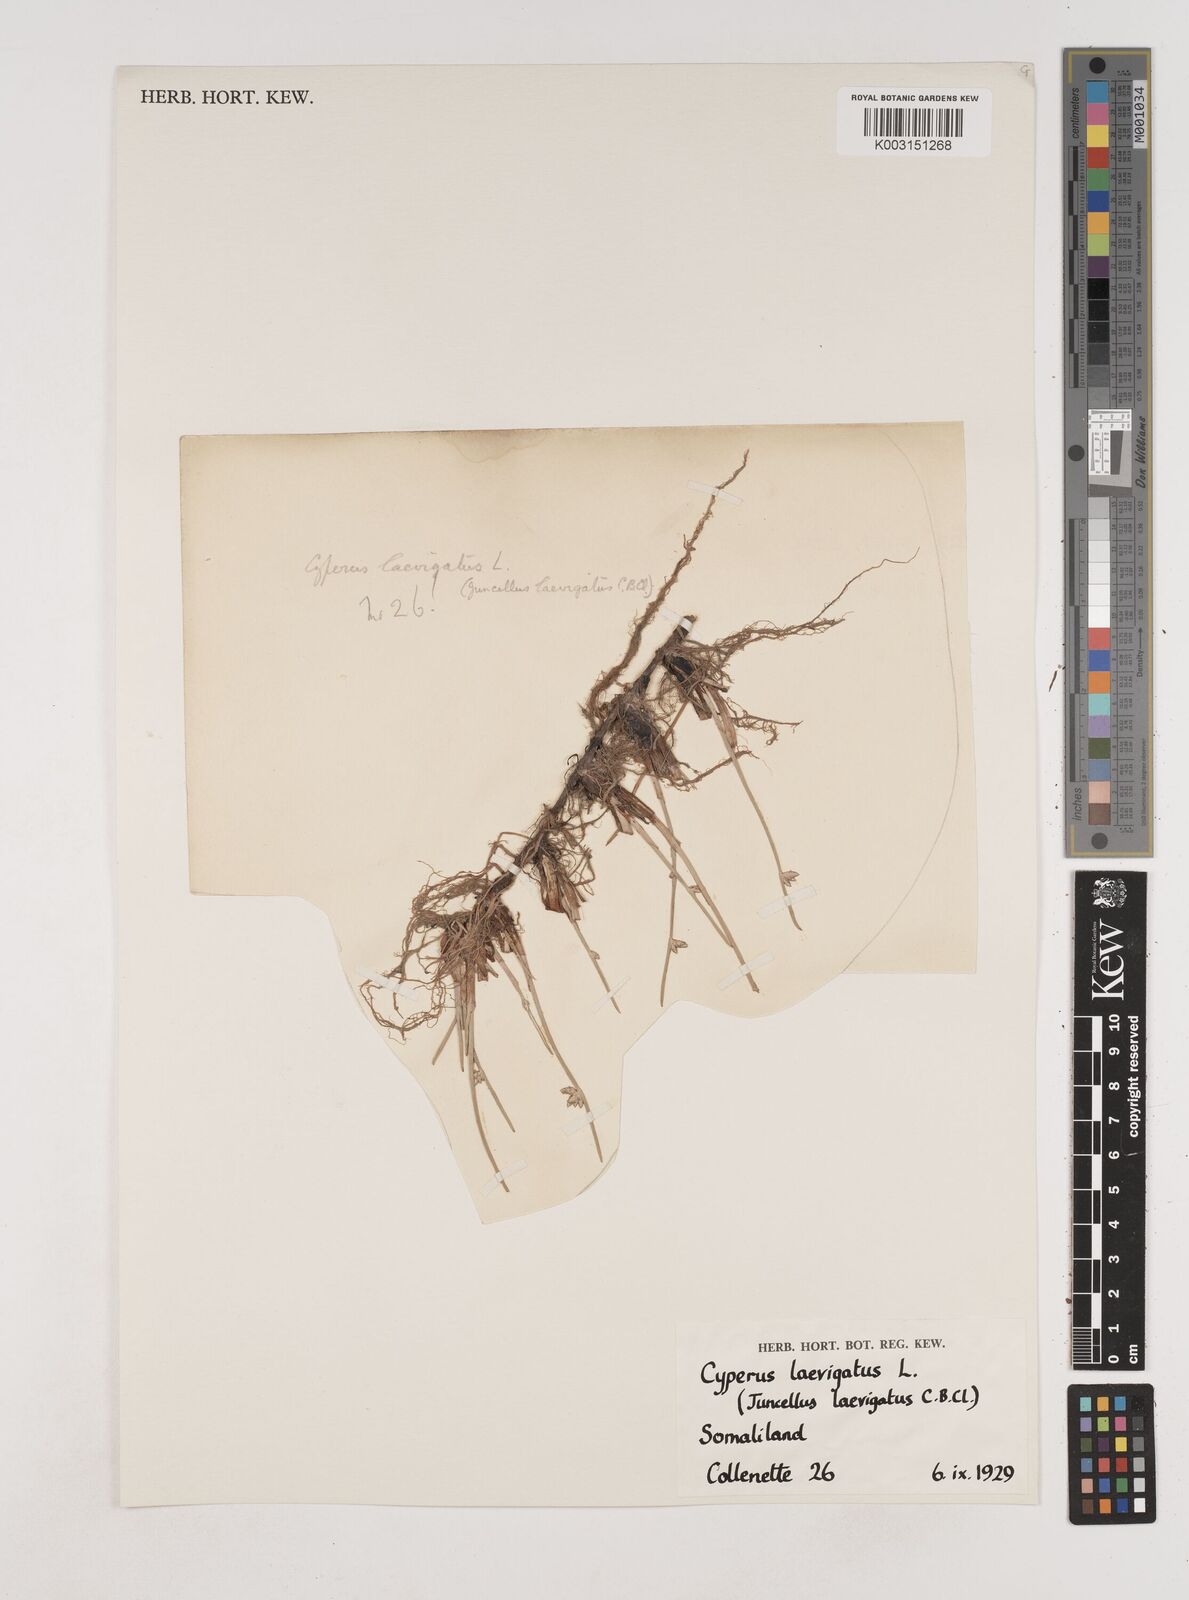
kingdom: Plantae
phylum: Tracheophyta
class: Liliopsida
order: Poales
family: Cyperaceae
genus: Cyperus
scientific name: Cyperus laevigatus
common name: Smooth flat sedge
